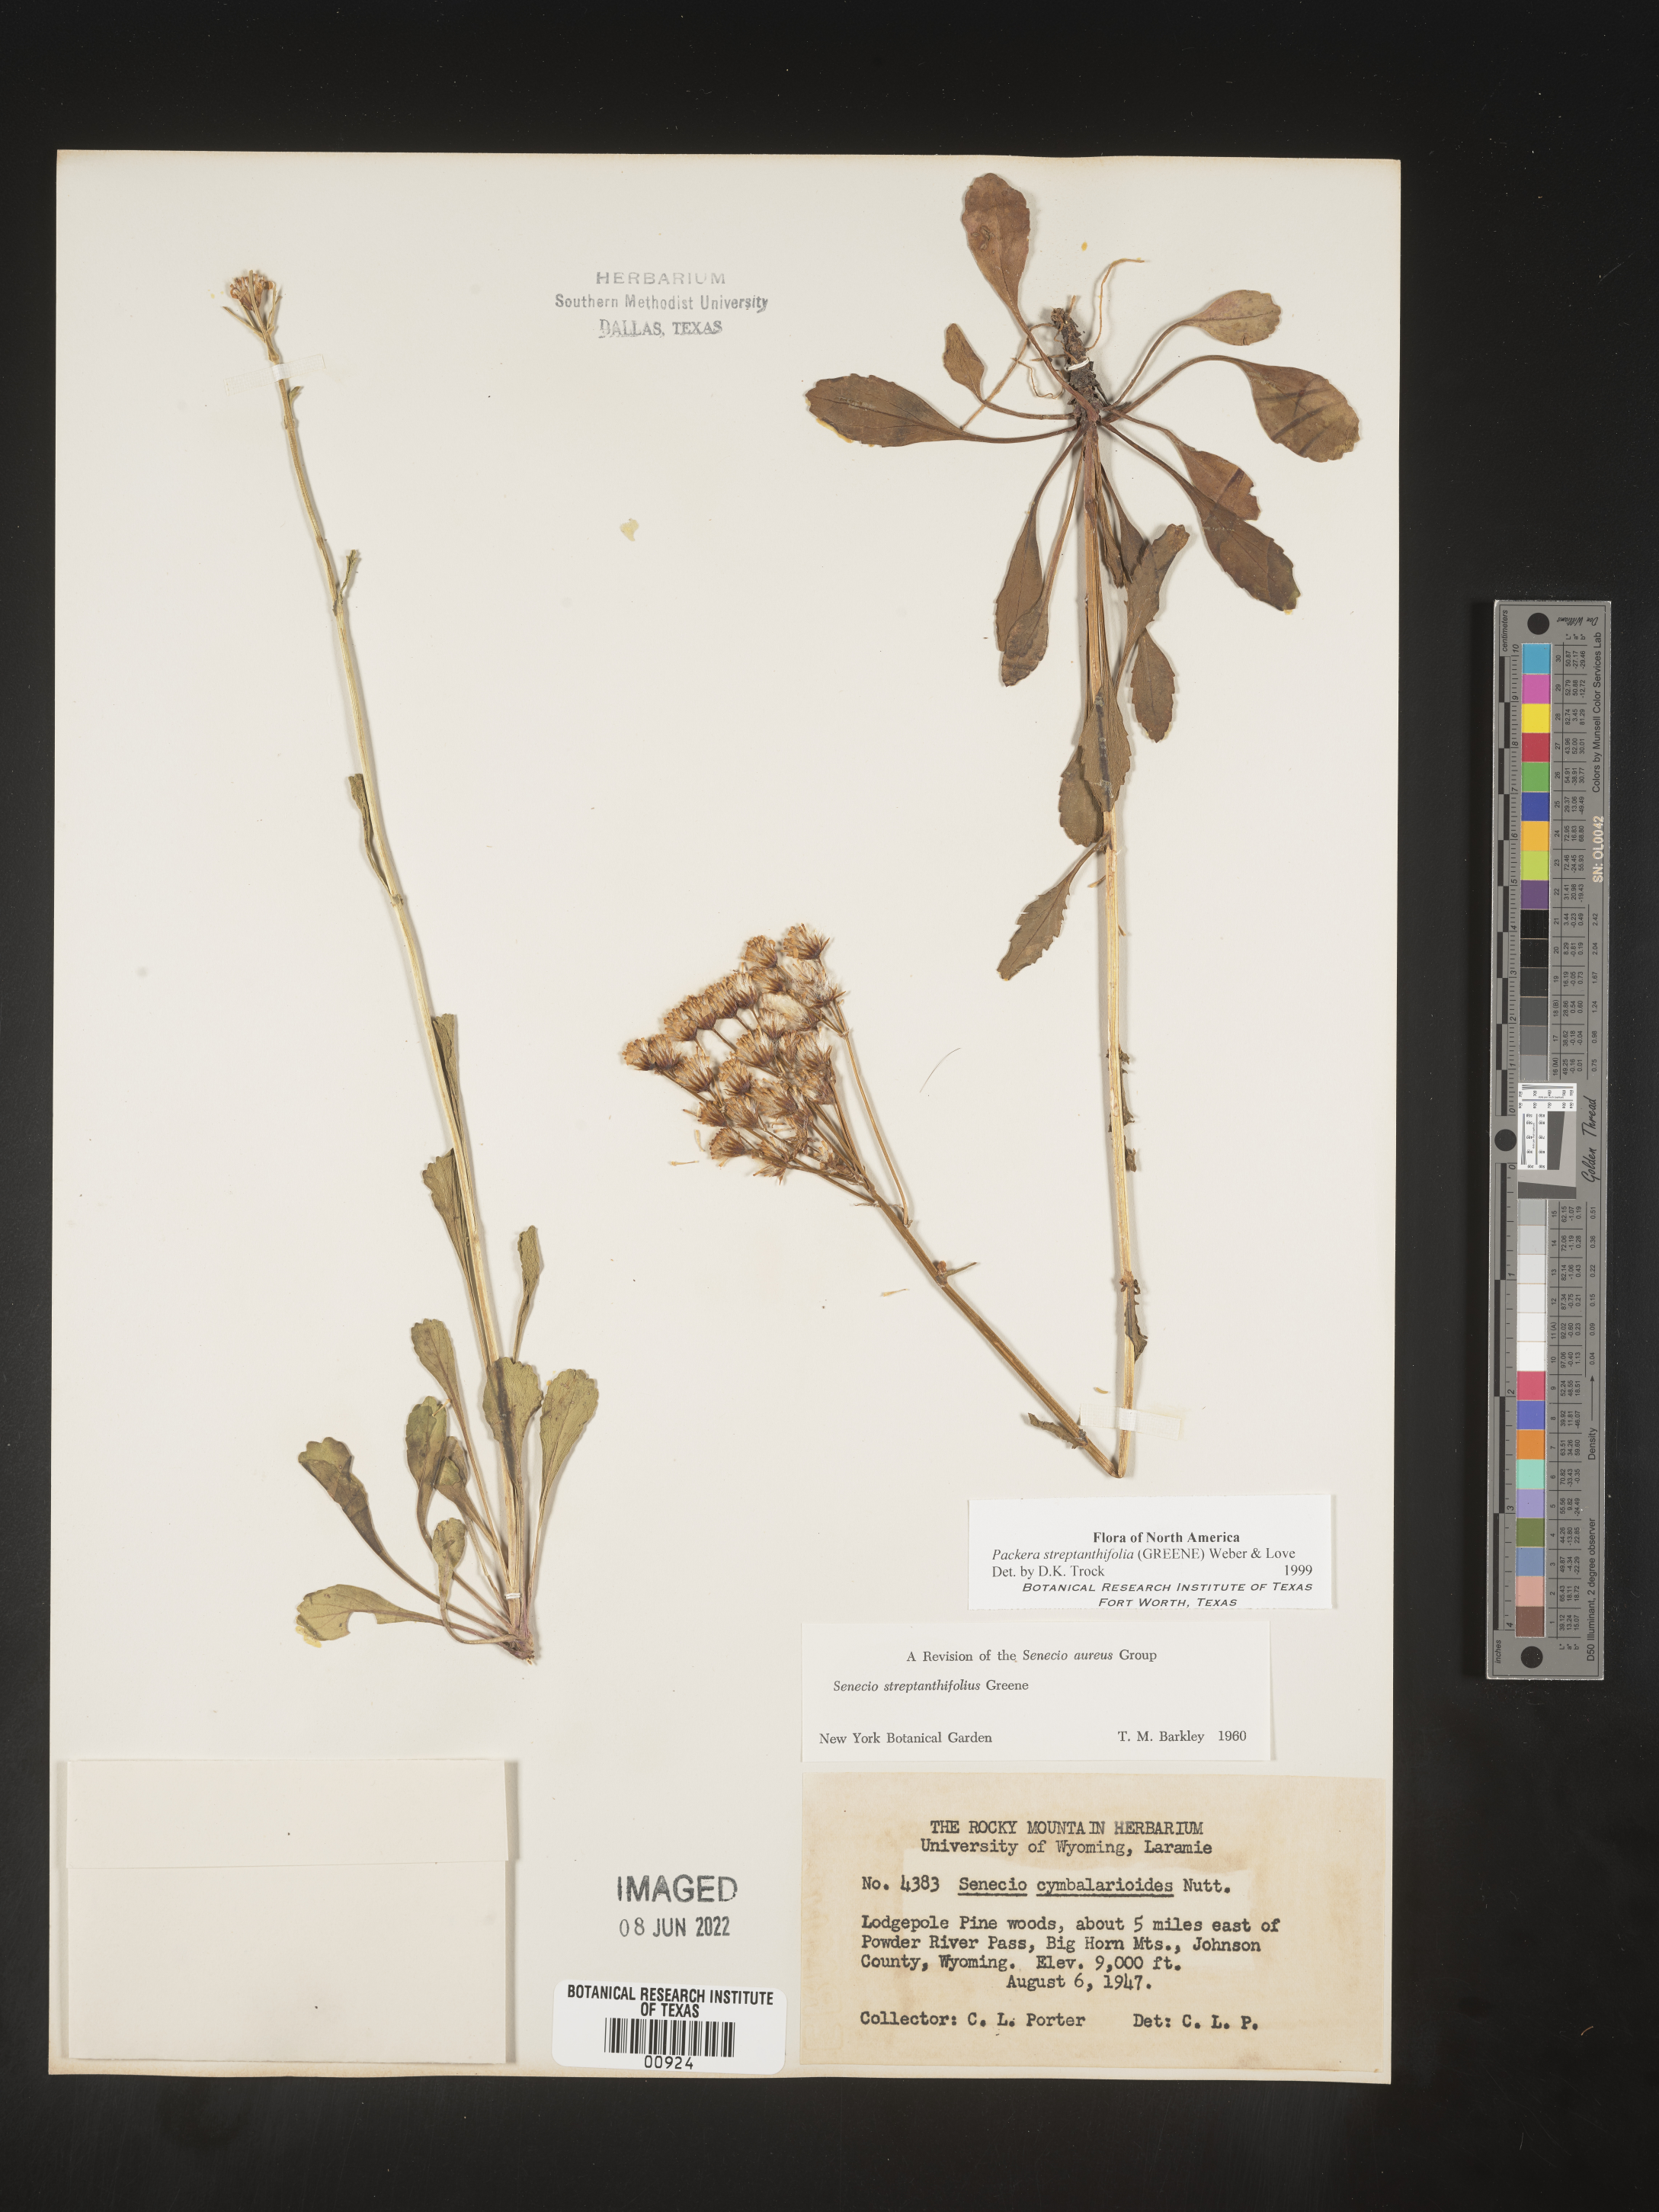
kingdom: Plantae
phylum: Tracheophyta
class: Magnoliopsida
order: Asterales
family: Asteraceae
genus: Packera
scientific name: Packera streptanthifolia
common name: Rocky mountain butterweed
